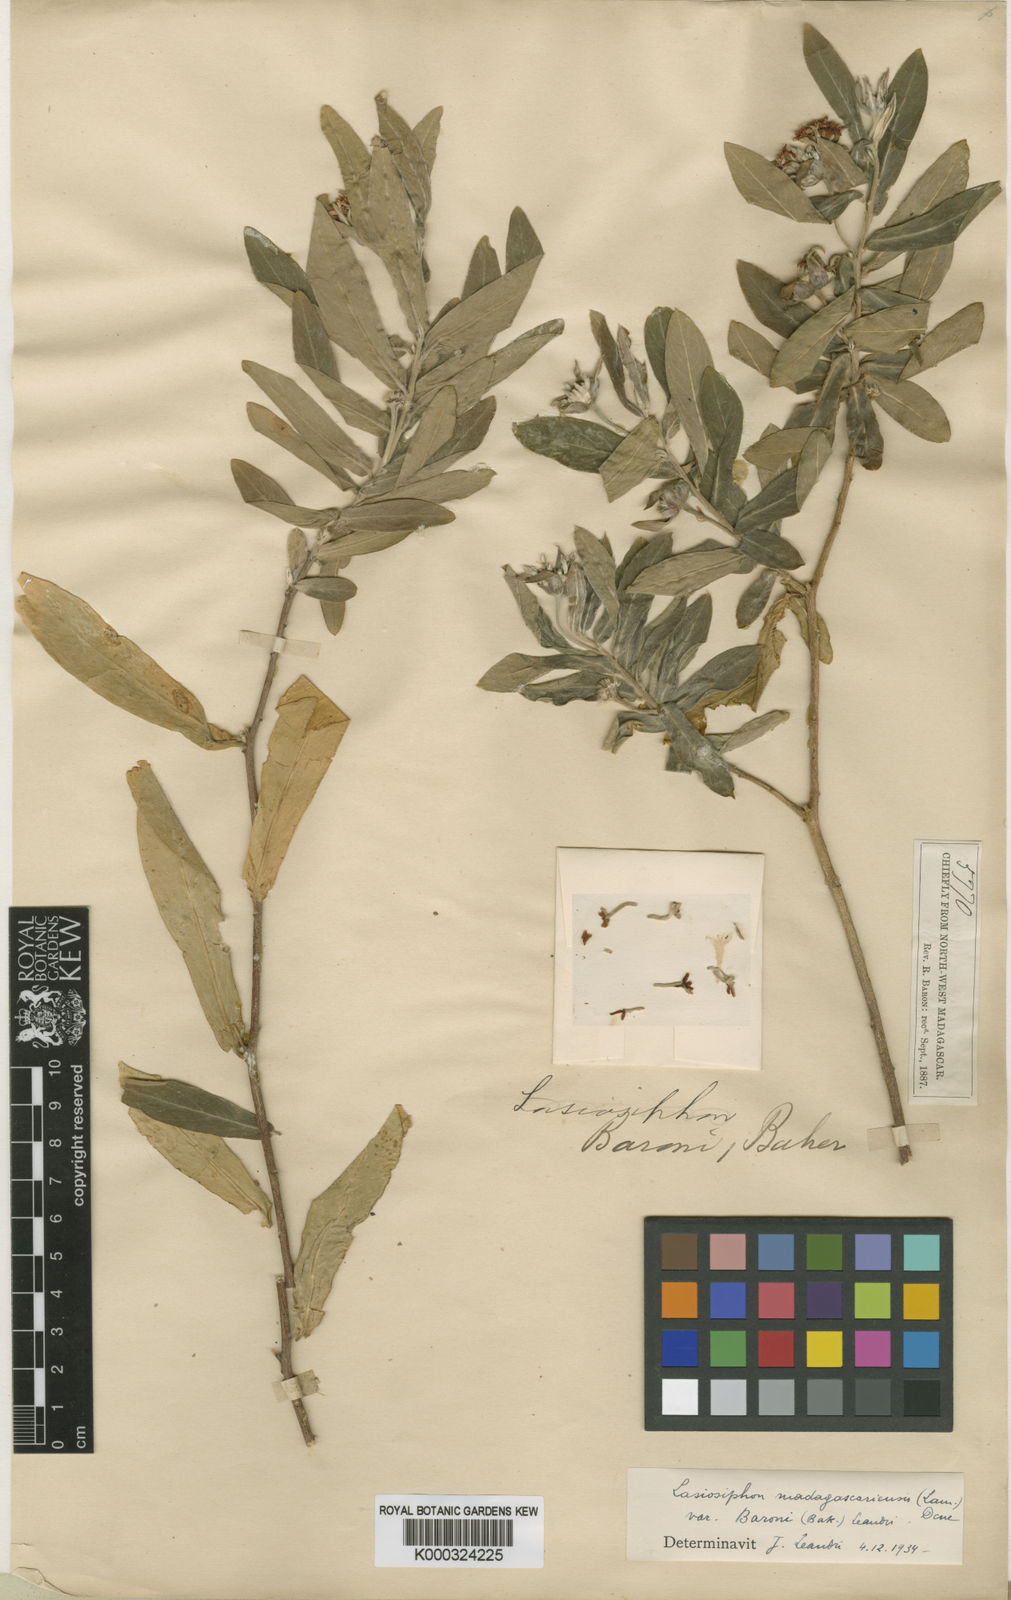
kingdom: Plantae
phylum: Tracheophyta
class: Magnoliopsida
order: Malvales
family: Thymelaeaceae
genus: Gnidia
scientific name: Gnidia daphnifolia
